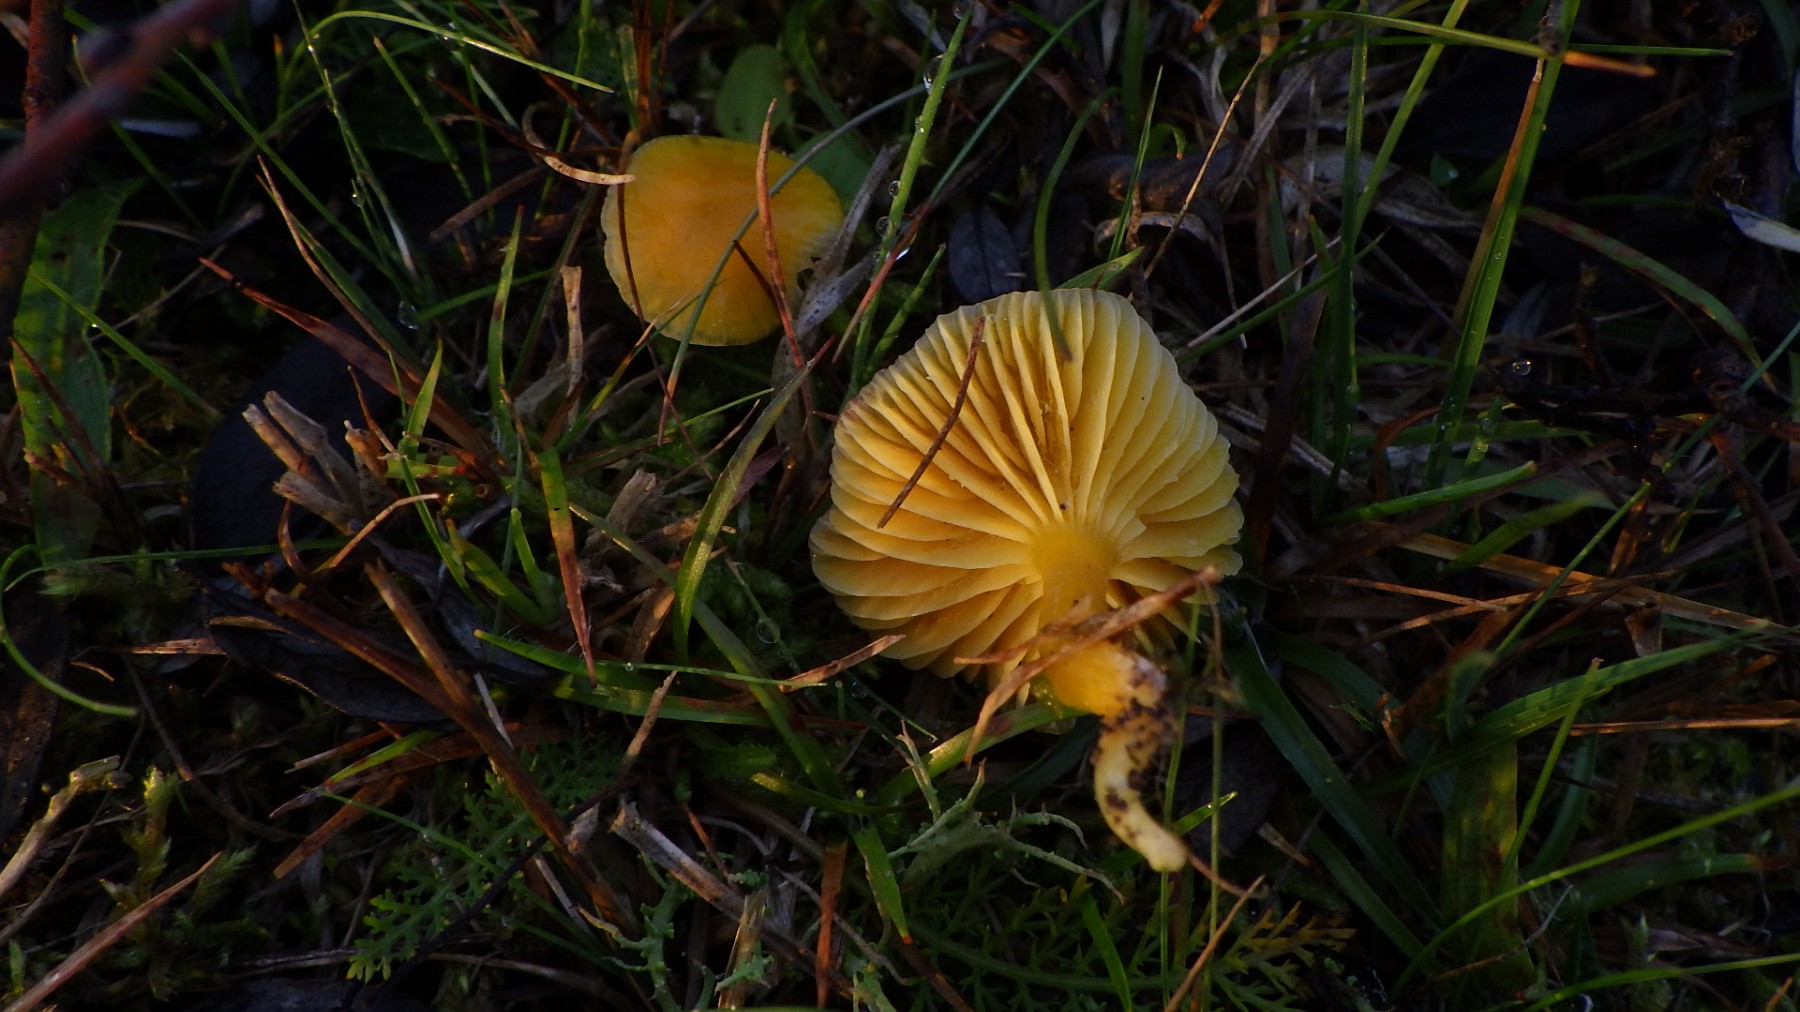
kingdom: Fungi
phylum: Basidiomycota
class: Agaricomycetes
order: Agaricales
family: Hygrophoraceae
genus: Hygrocybe
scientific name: Hygrocybe ceracea
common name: voksgul vokshat
